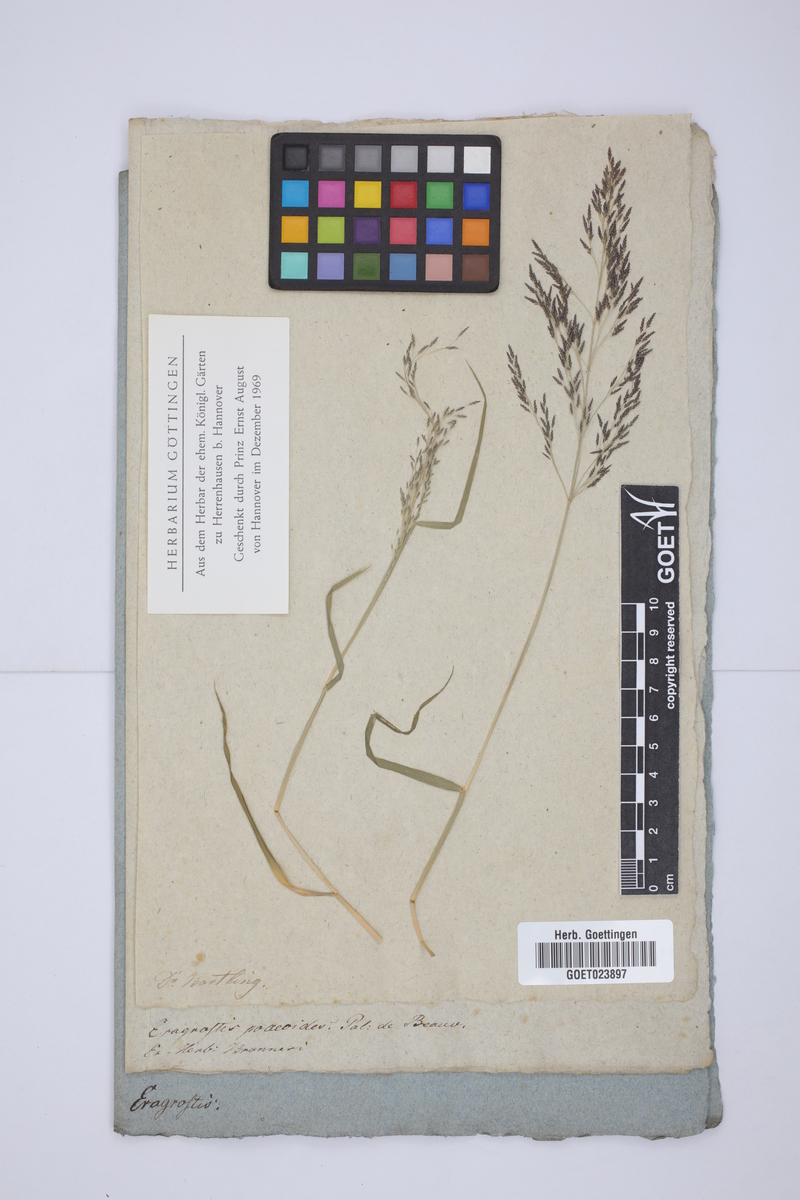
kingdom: Plantae
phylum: Tracheophyta
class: Liliopsida
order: Poales
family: Poaceae
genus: Eragrostis
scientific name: Eragrostis minor
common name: Small love-grass
